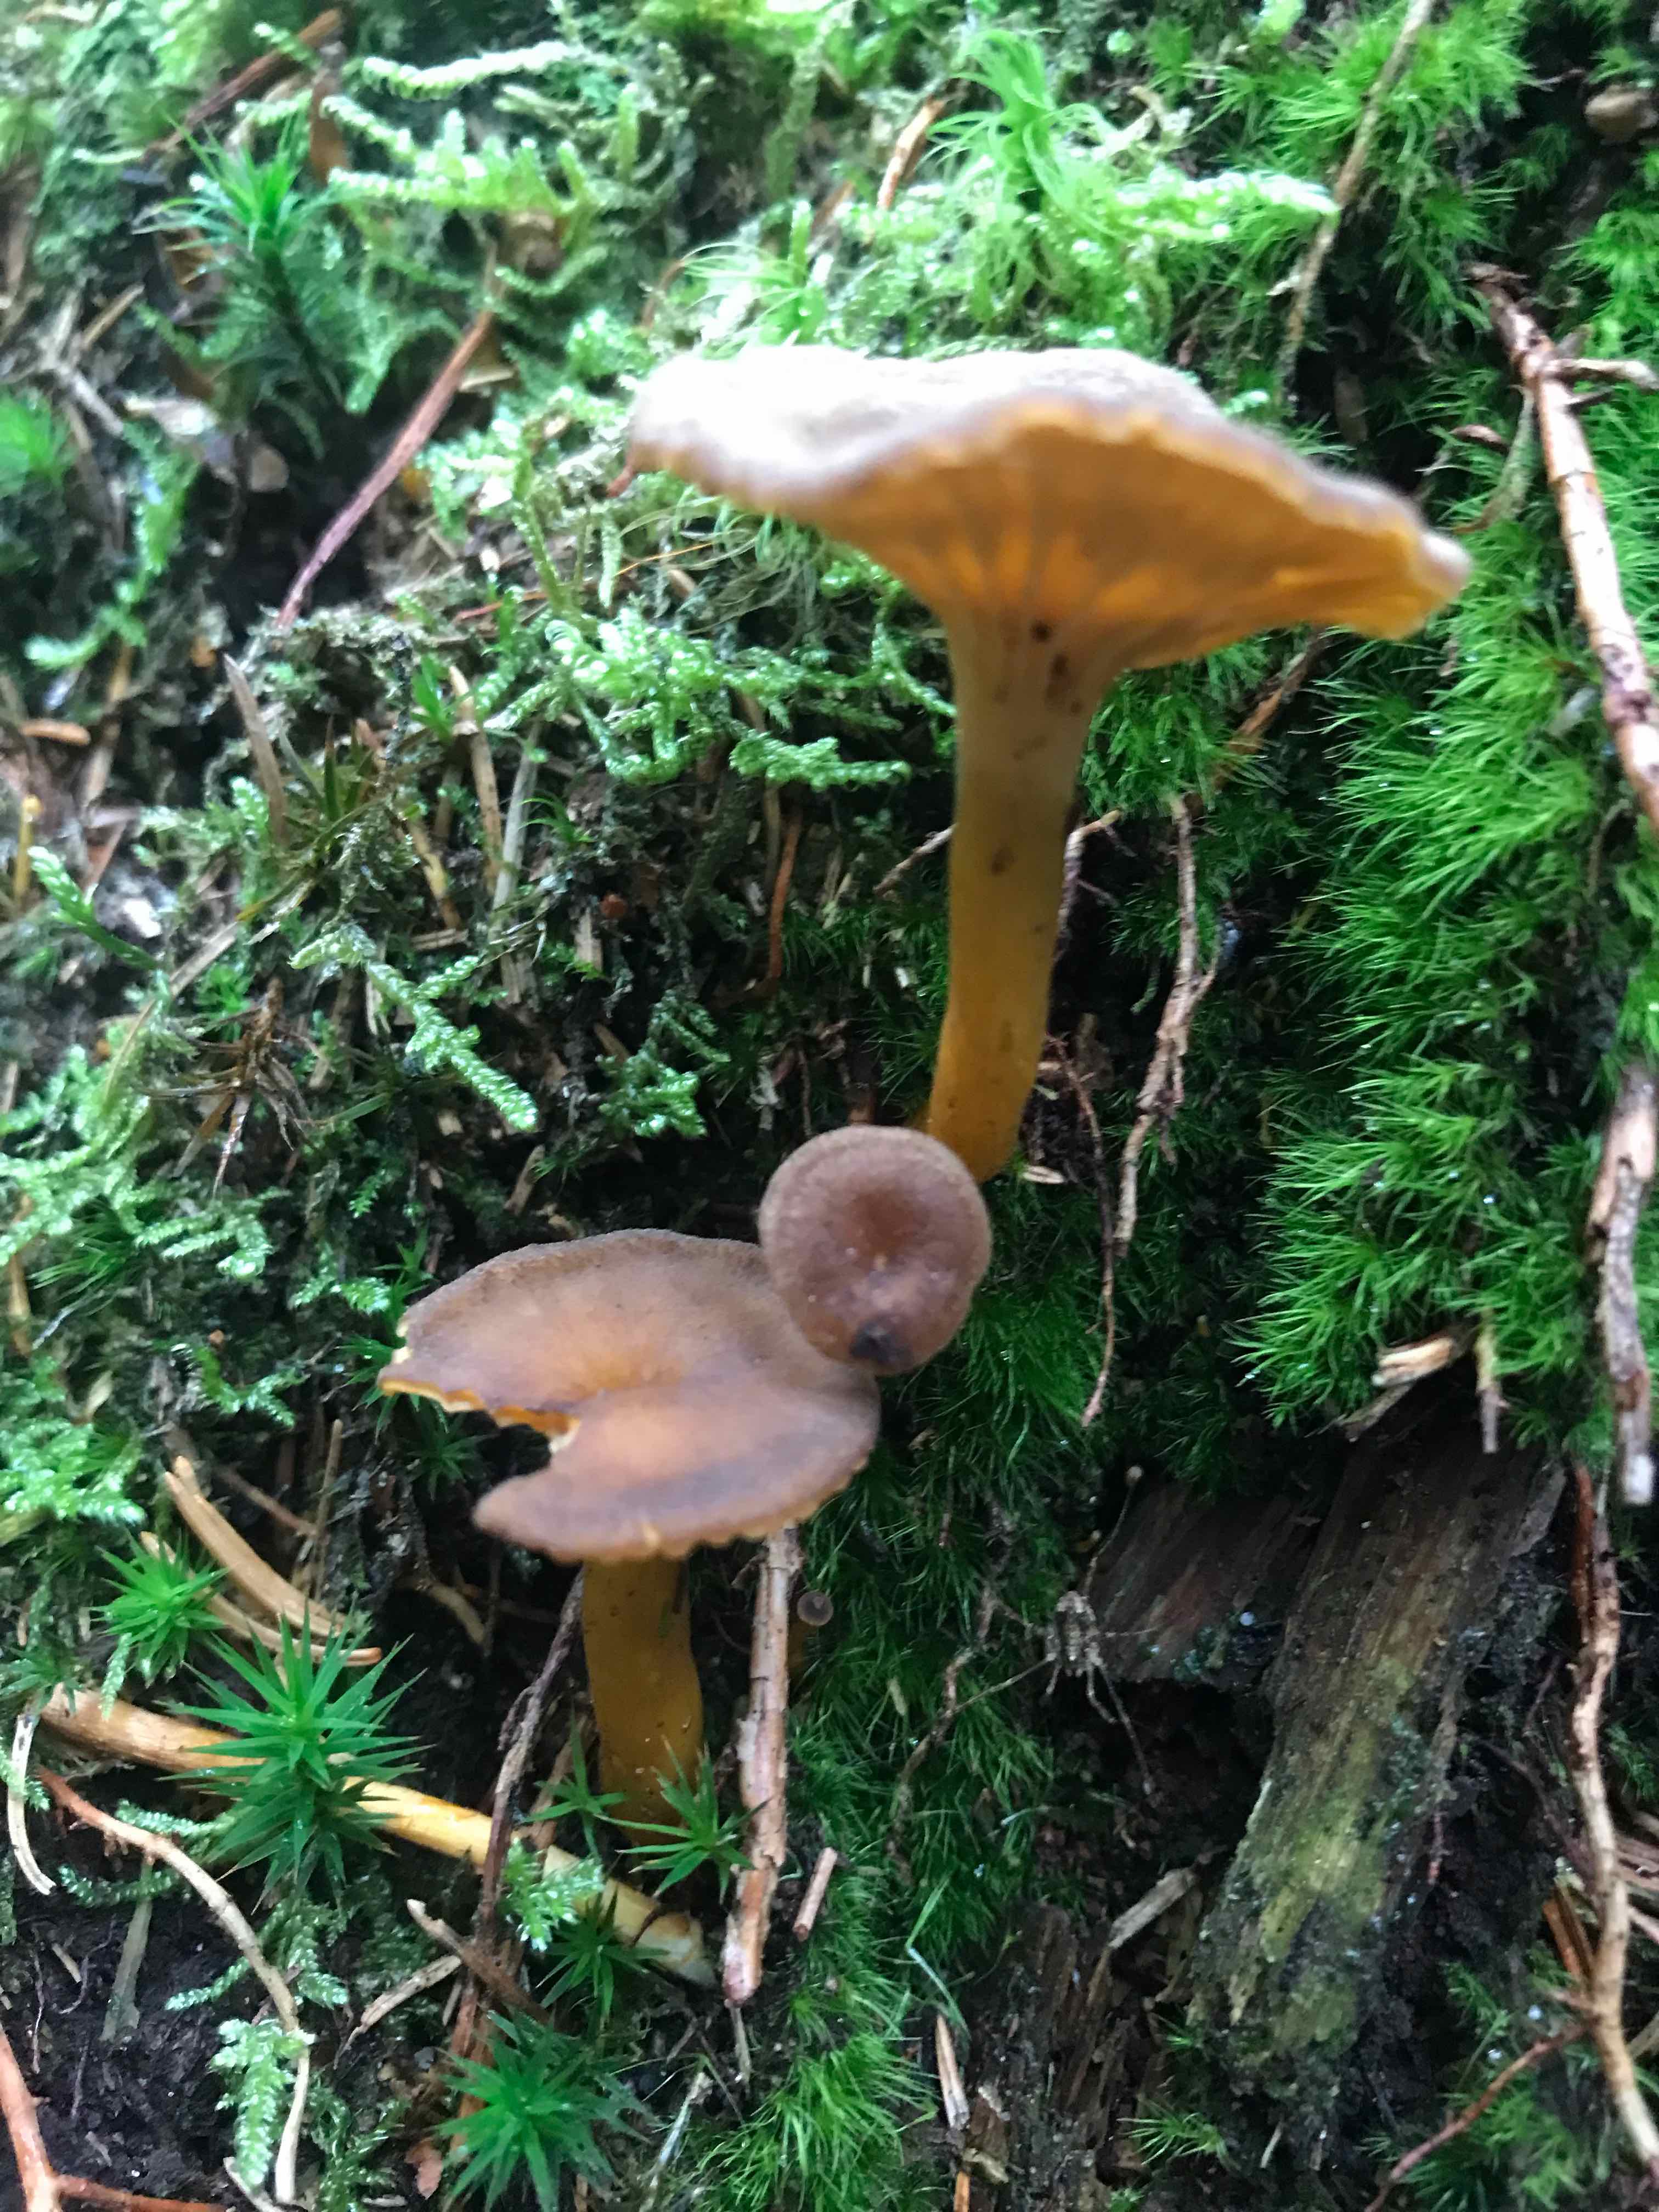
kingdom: Fungi
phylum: Basidiomycota
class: Agaricomycetes
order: Cantharellales
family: Hydnaceae
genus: Craterellus
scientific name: Craterellus tubaeformis
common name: tragt-kantarel
